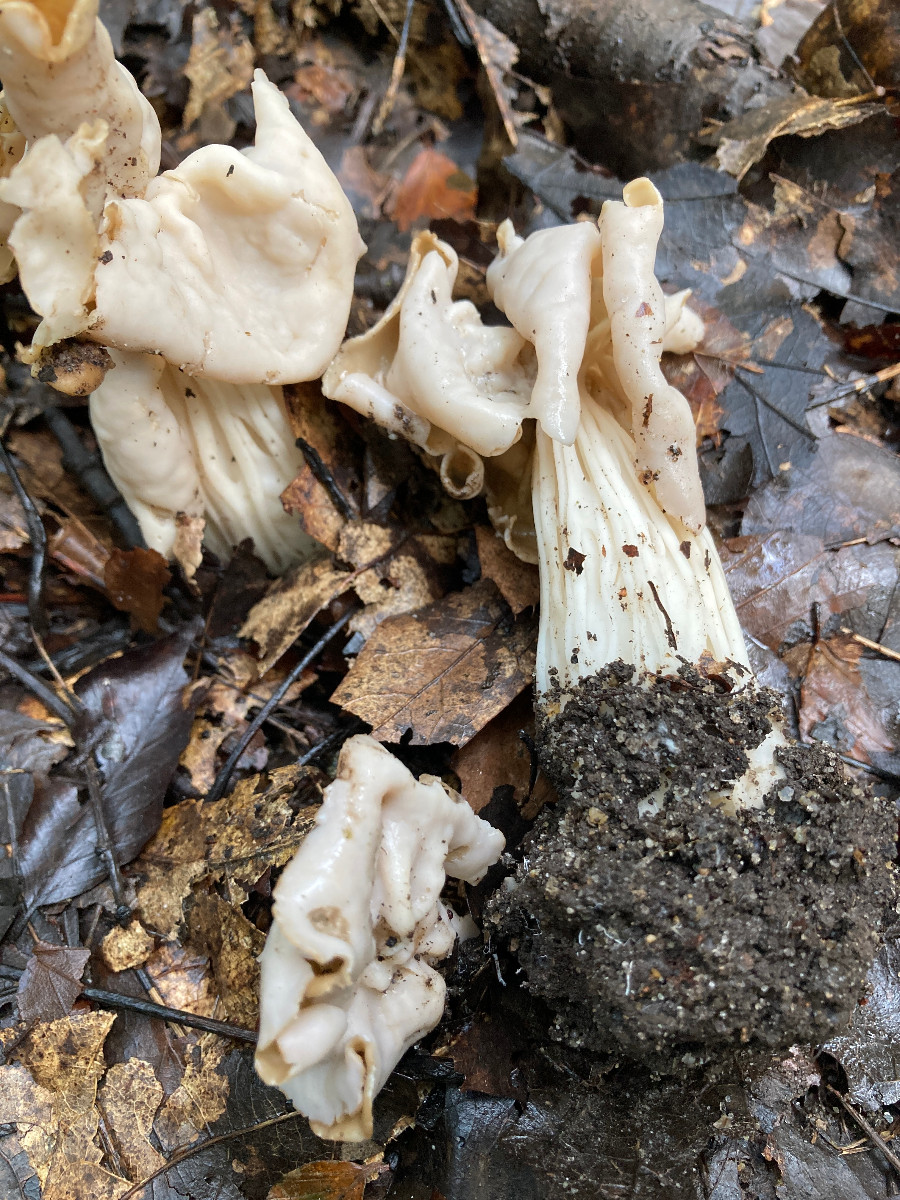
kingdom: Fungi
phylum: Ascomycota
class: Pezizomycetes
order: Pezizales
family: Helvellaceae
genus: Helvella
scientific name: Helvella crispa
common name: kruset foldhat
